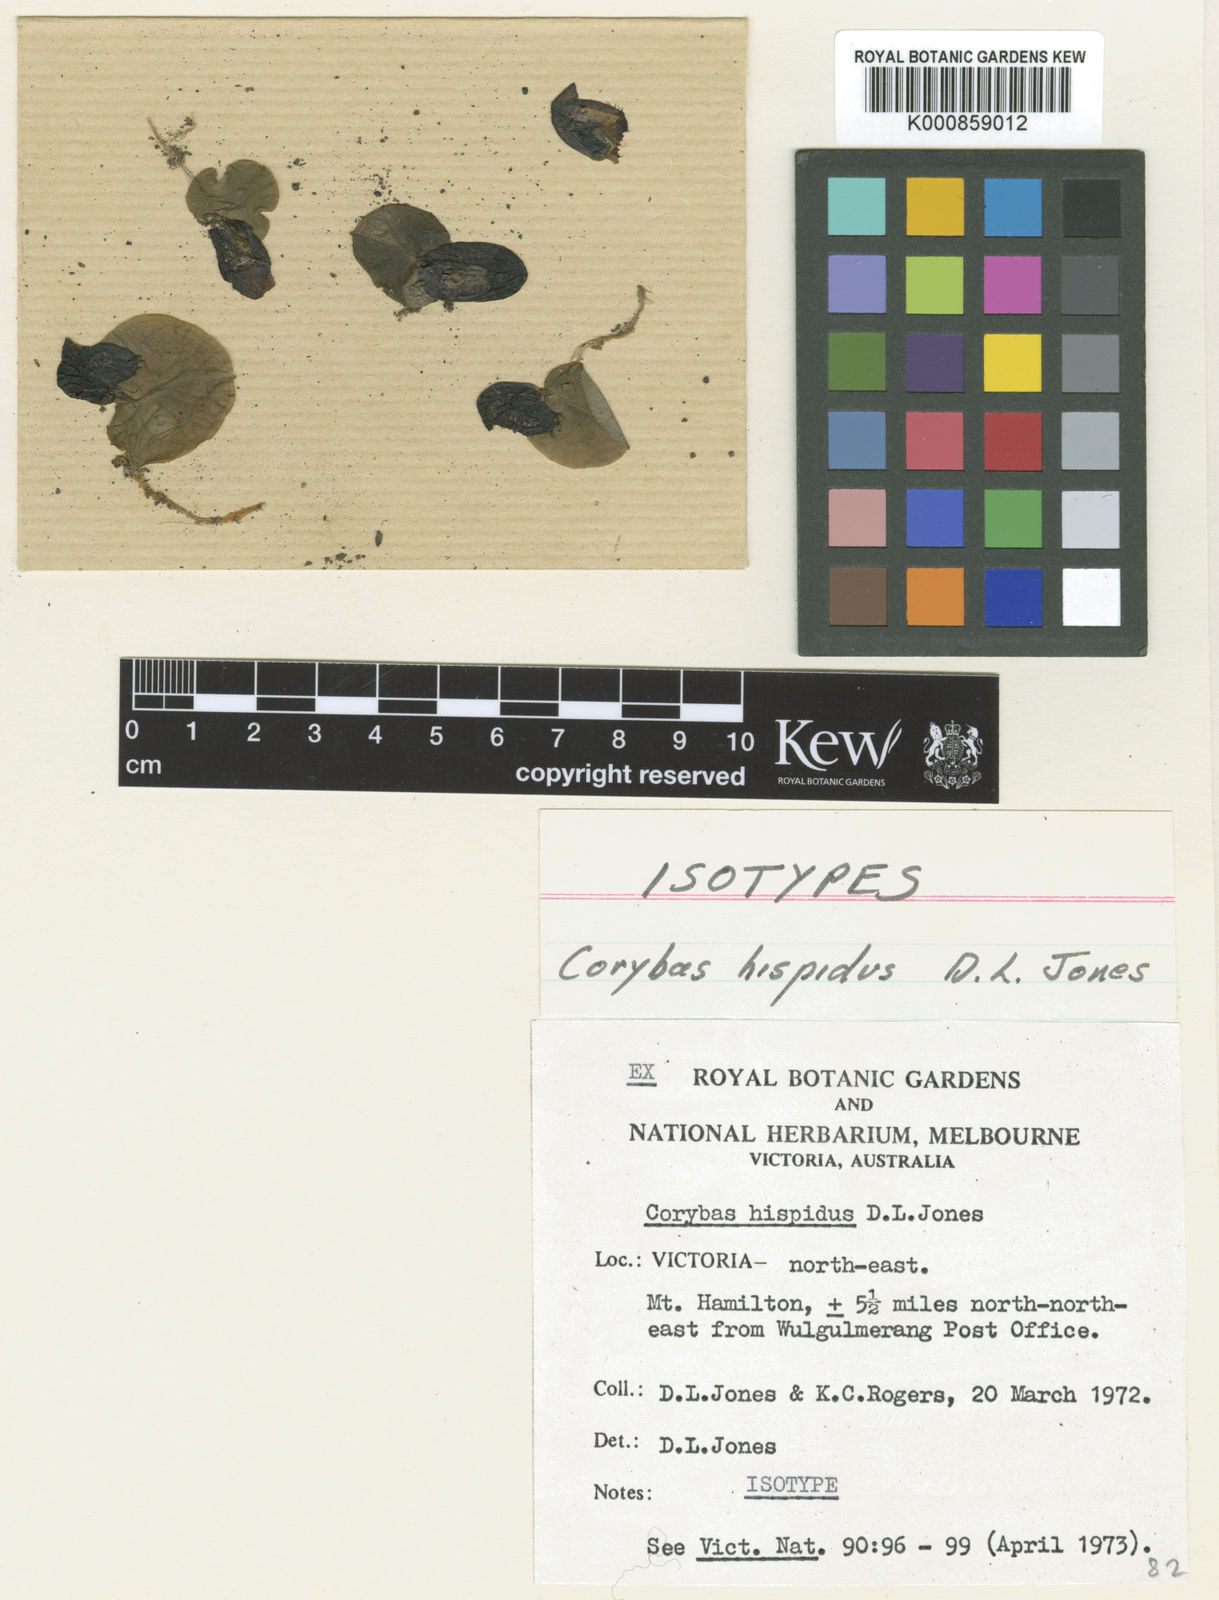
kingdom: Plantae
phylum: Tracheophyta
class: Liliopsida
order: Asparagales
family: Orchidaceae
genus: Corybas
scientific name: Corybas hispidus
